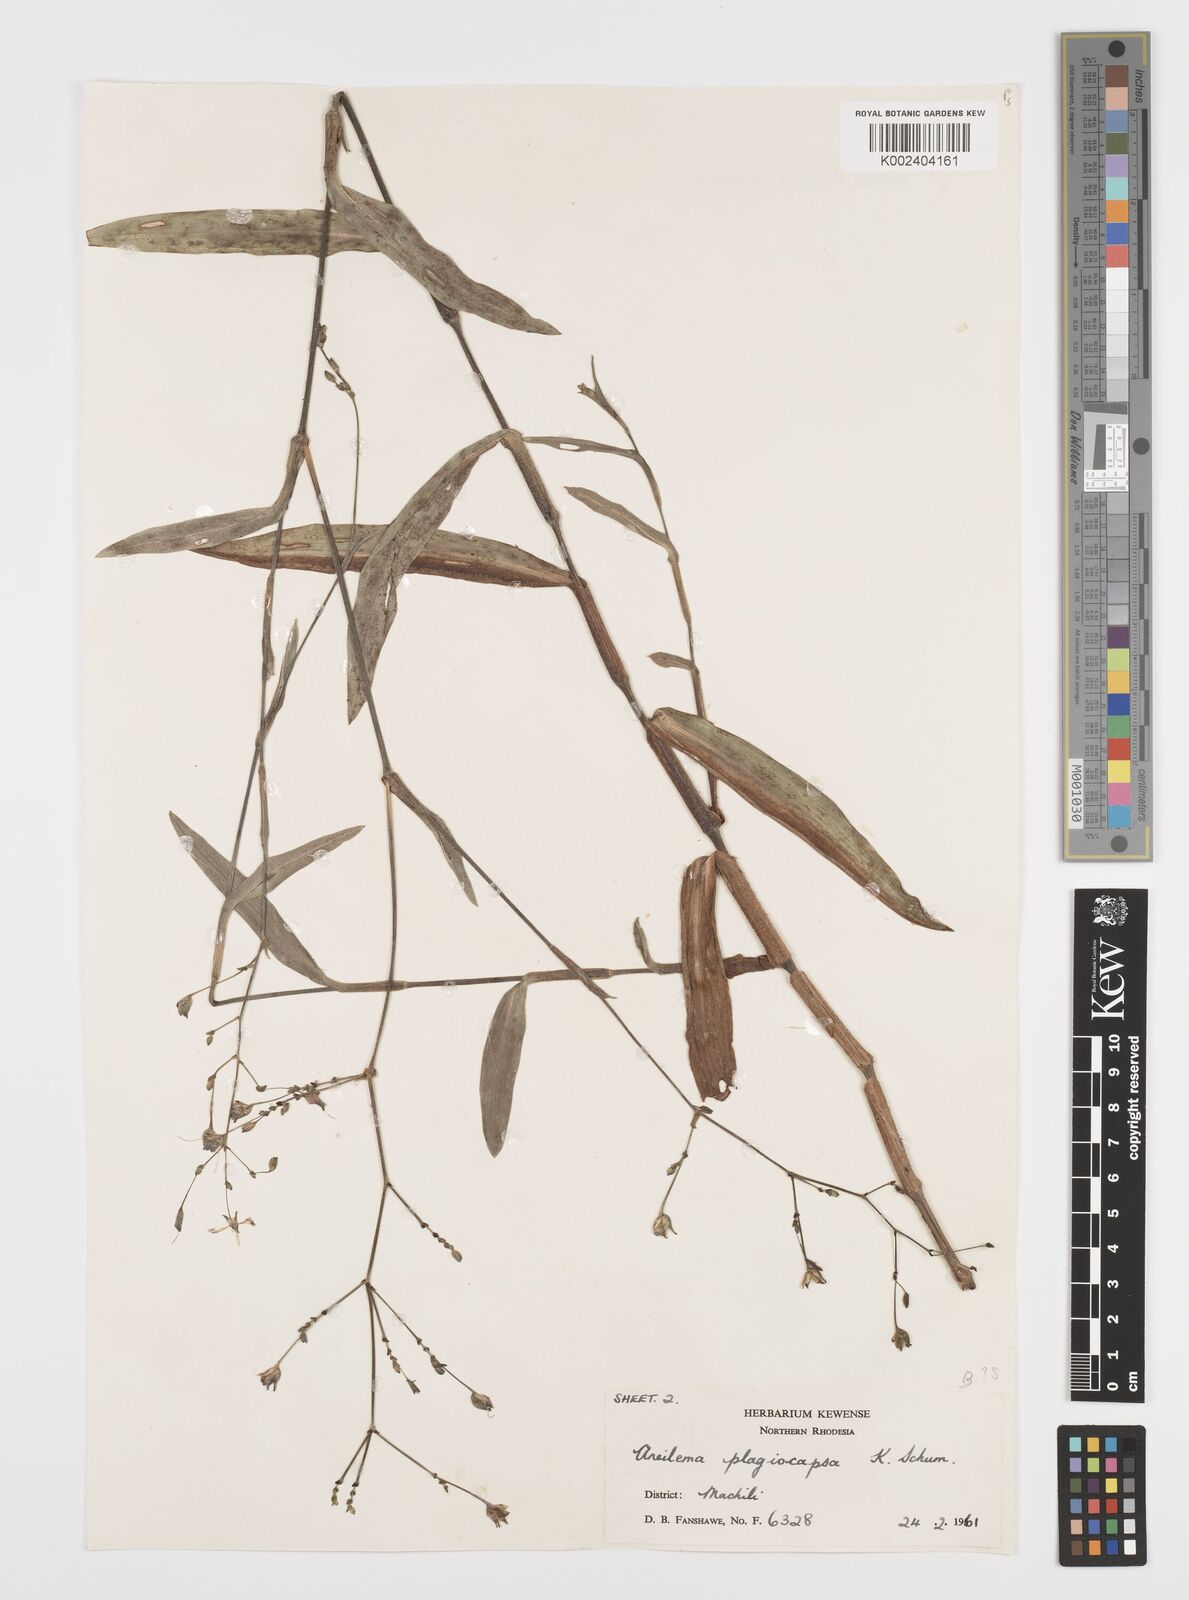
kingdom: Plantae
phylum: Tracheophyta
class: Liliopsida
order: Commelinales
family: Commelinaceae
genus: Aneilema
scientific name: Aneilema plagiocapsa
